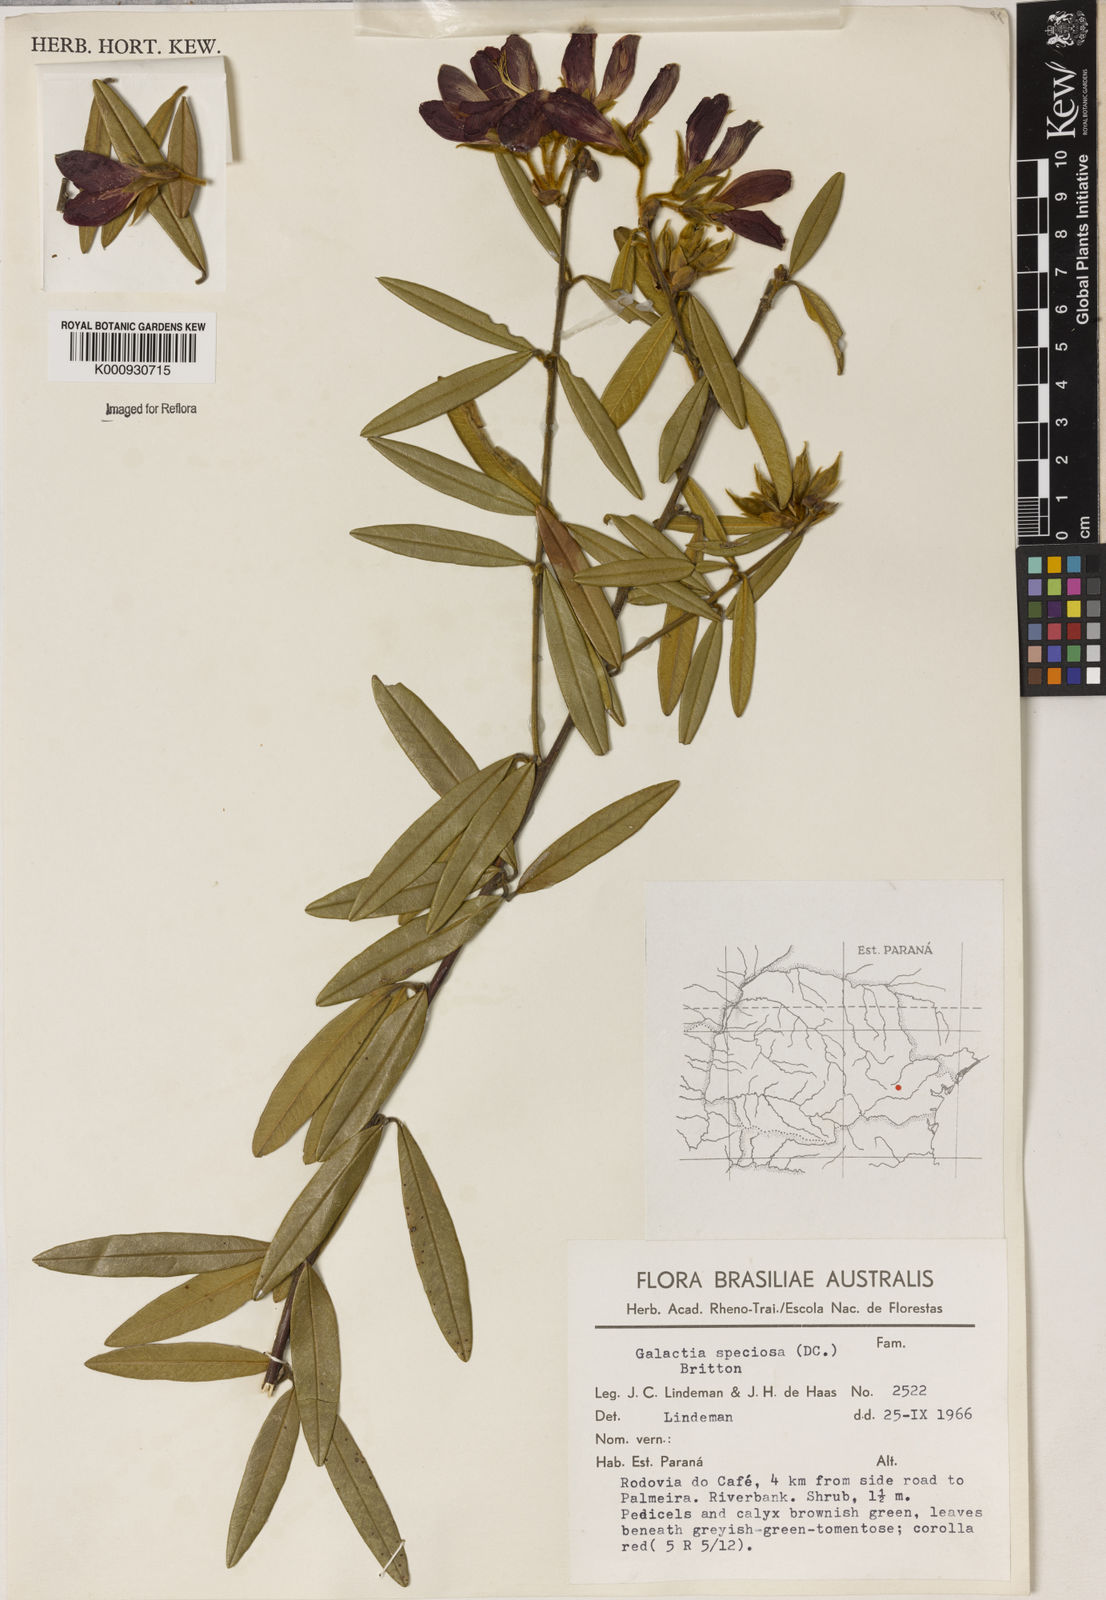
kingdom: Plantae
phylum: Tracheophyta
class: Magnoliopsida
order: Lamiales
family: Lamiaceae
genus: Coleus
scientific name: Coleus barbatus
